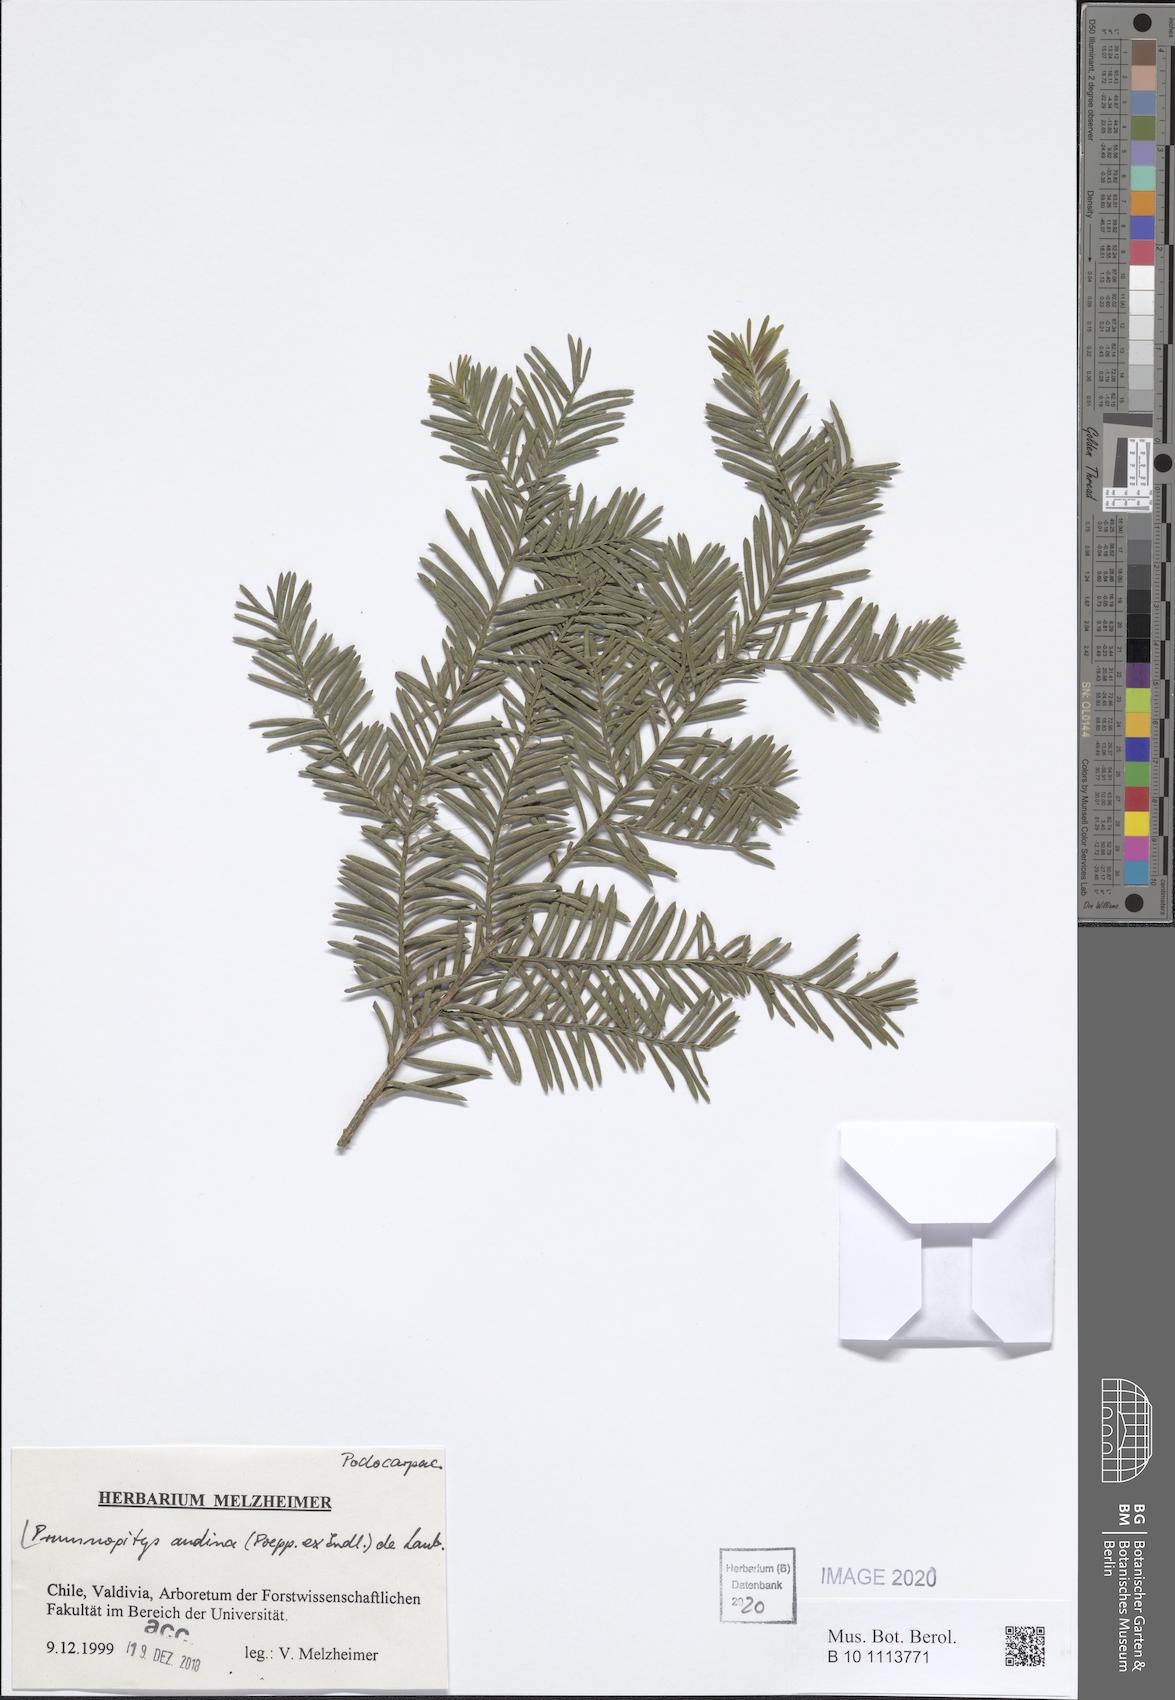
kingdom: Plantae
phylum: Tracheophyta
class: Pinopsida
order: Pinales
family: Podocarpaceae
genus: Prumnopitys
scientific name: Prumnopitys andina
